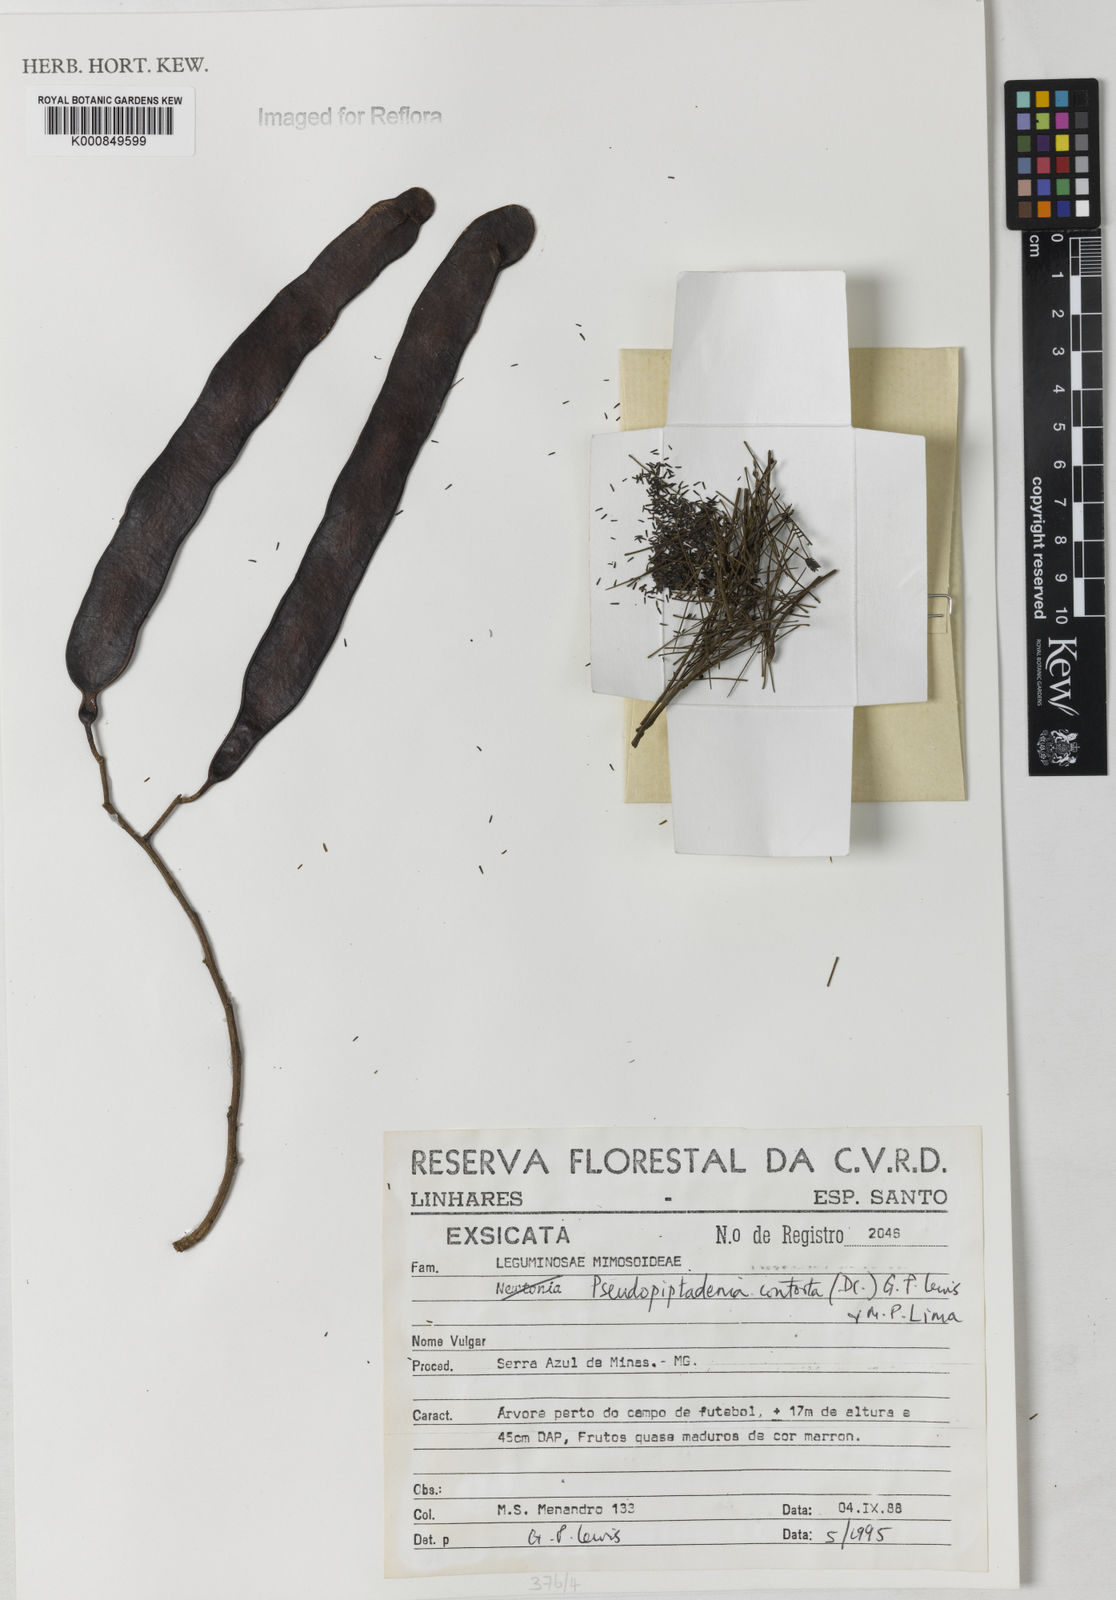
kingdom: Plantae
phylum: Tracheophyta
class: Magnoliopsida
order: Fabales
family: Fabaceae
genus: Pseudopiptadenia
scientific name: Pseudopiptadenia contorta
